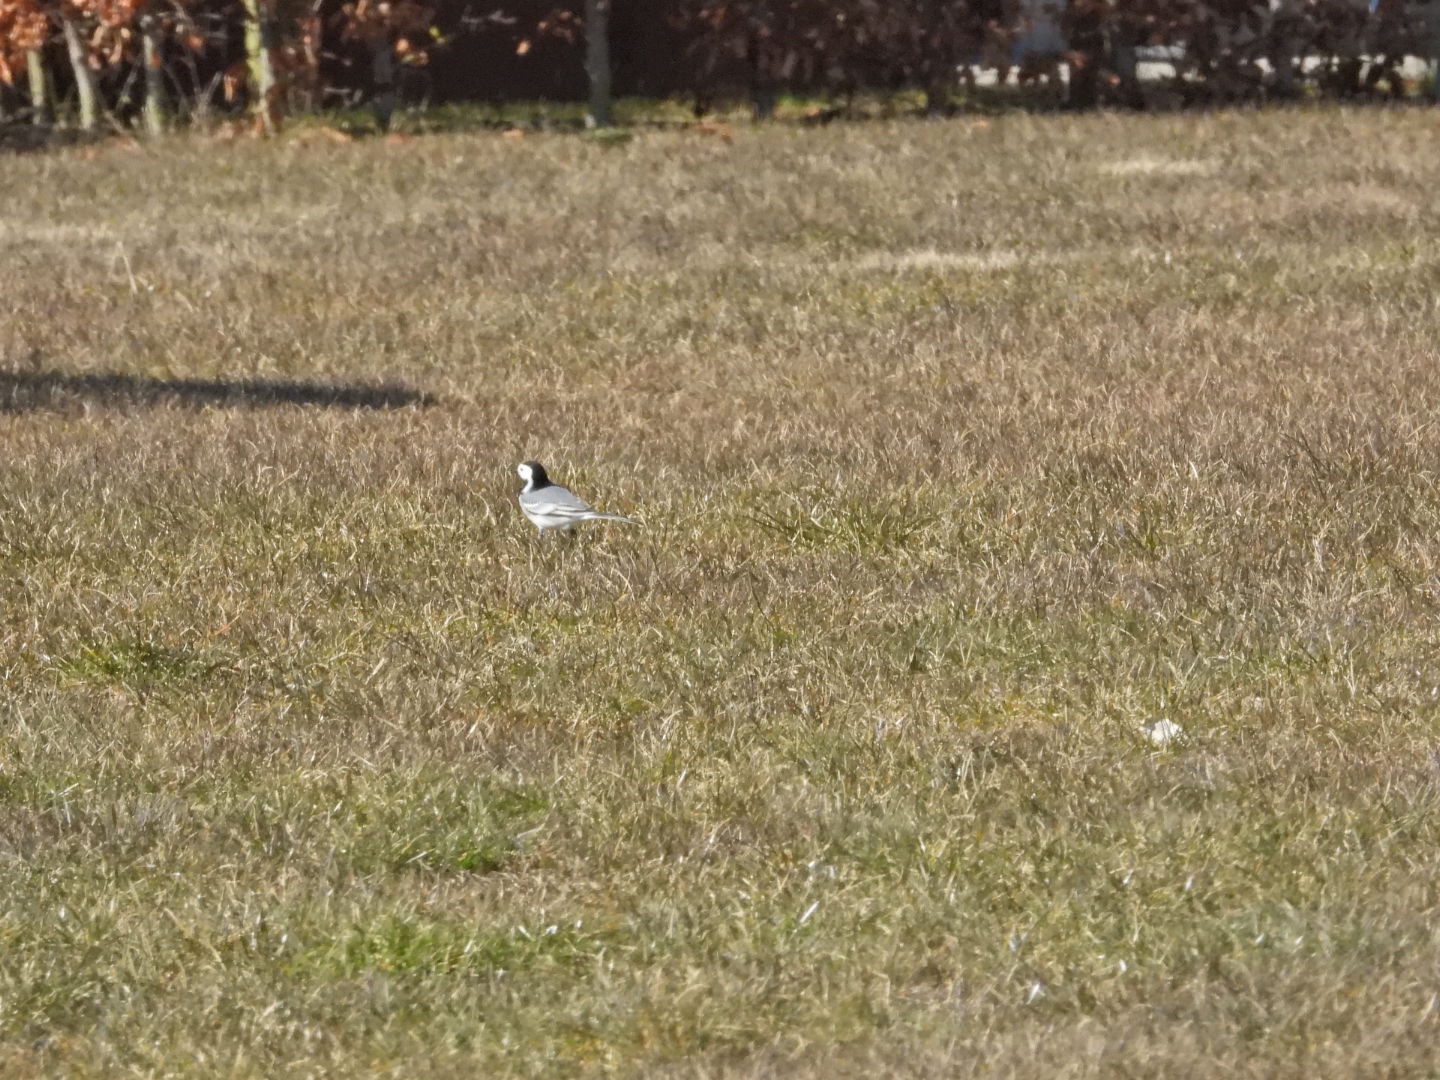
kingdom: Animalia
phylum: Chordata
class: Aves
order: Passeriformes
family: Motacillidae
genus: Motacilla
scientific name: Motacilla alba
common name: Hvid vipstjert
